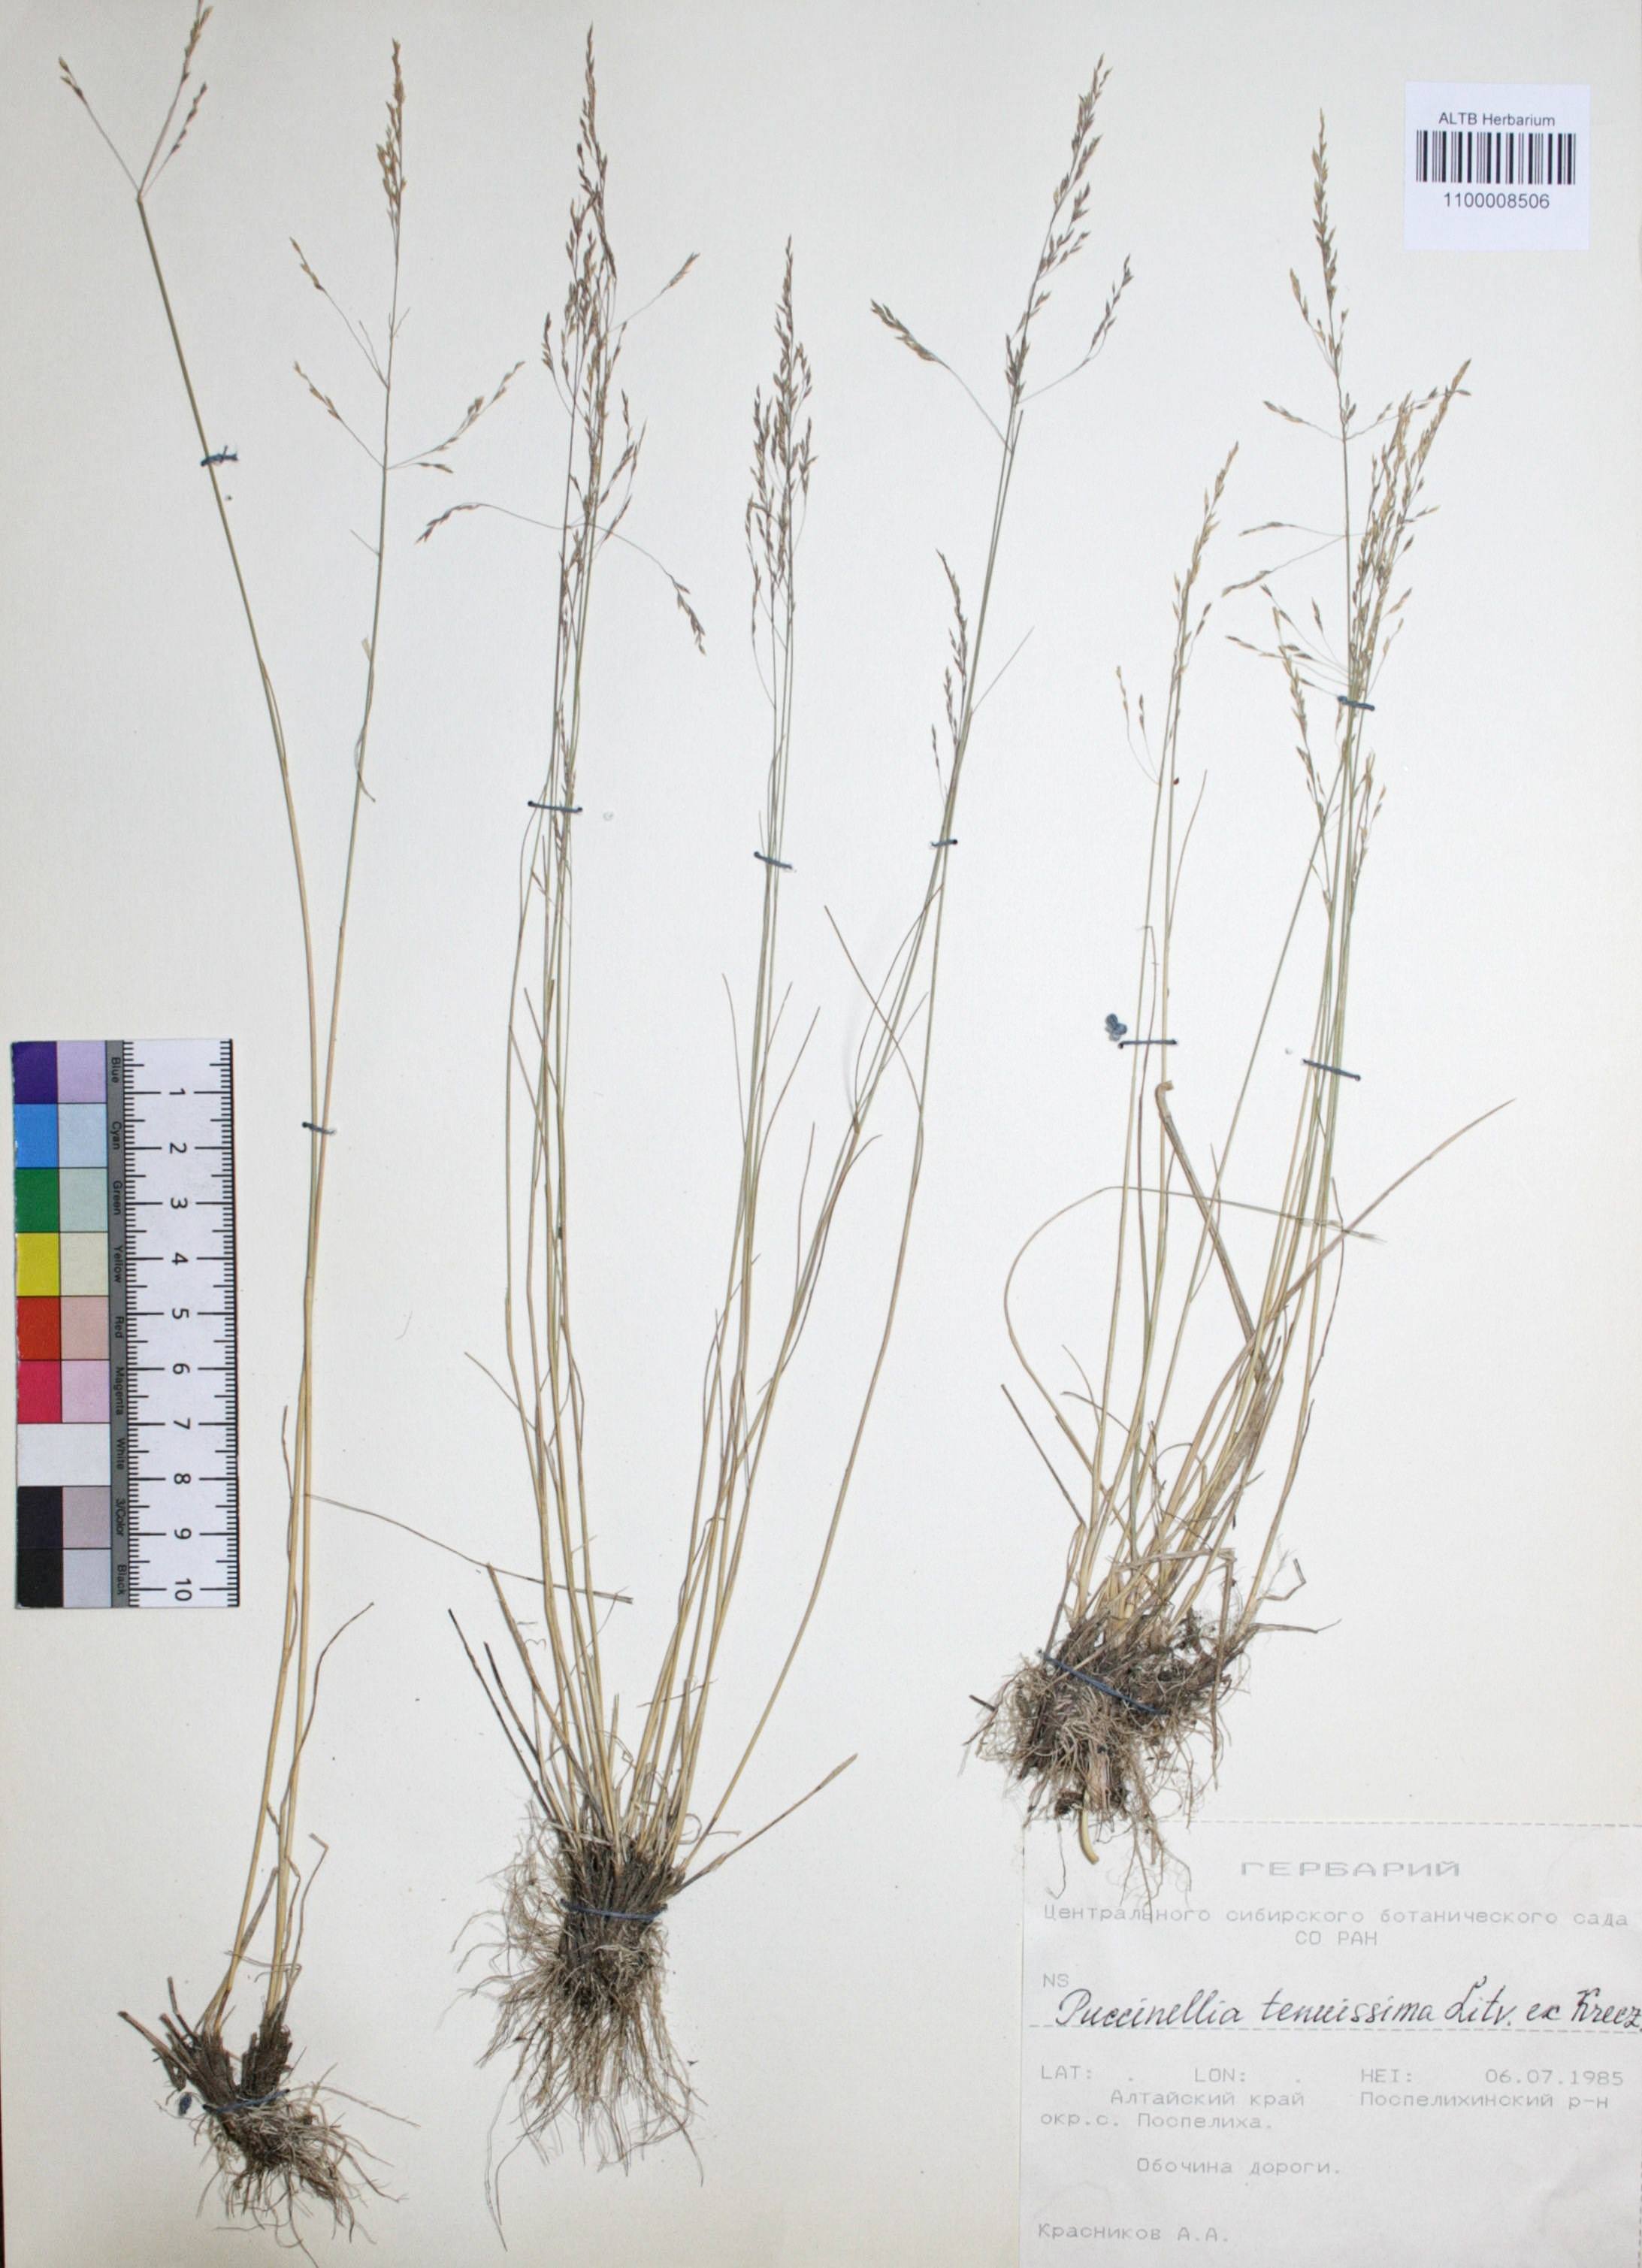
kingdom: Plantae
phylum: Tracheophyta
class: Liliopsida
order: Poales
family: Poaceae
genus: Puccinellia
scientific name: Puccinellia tenuiflora
